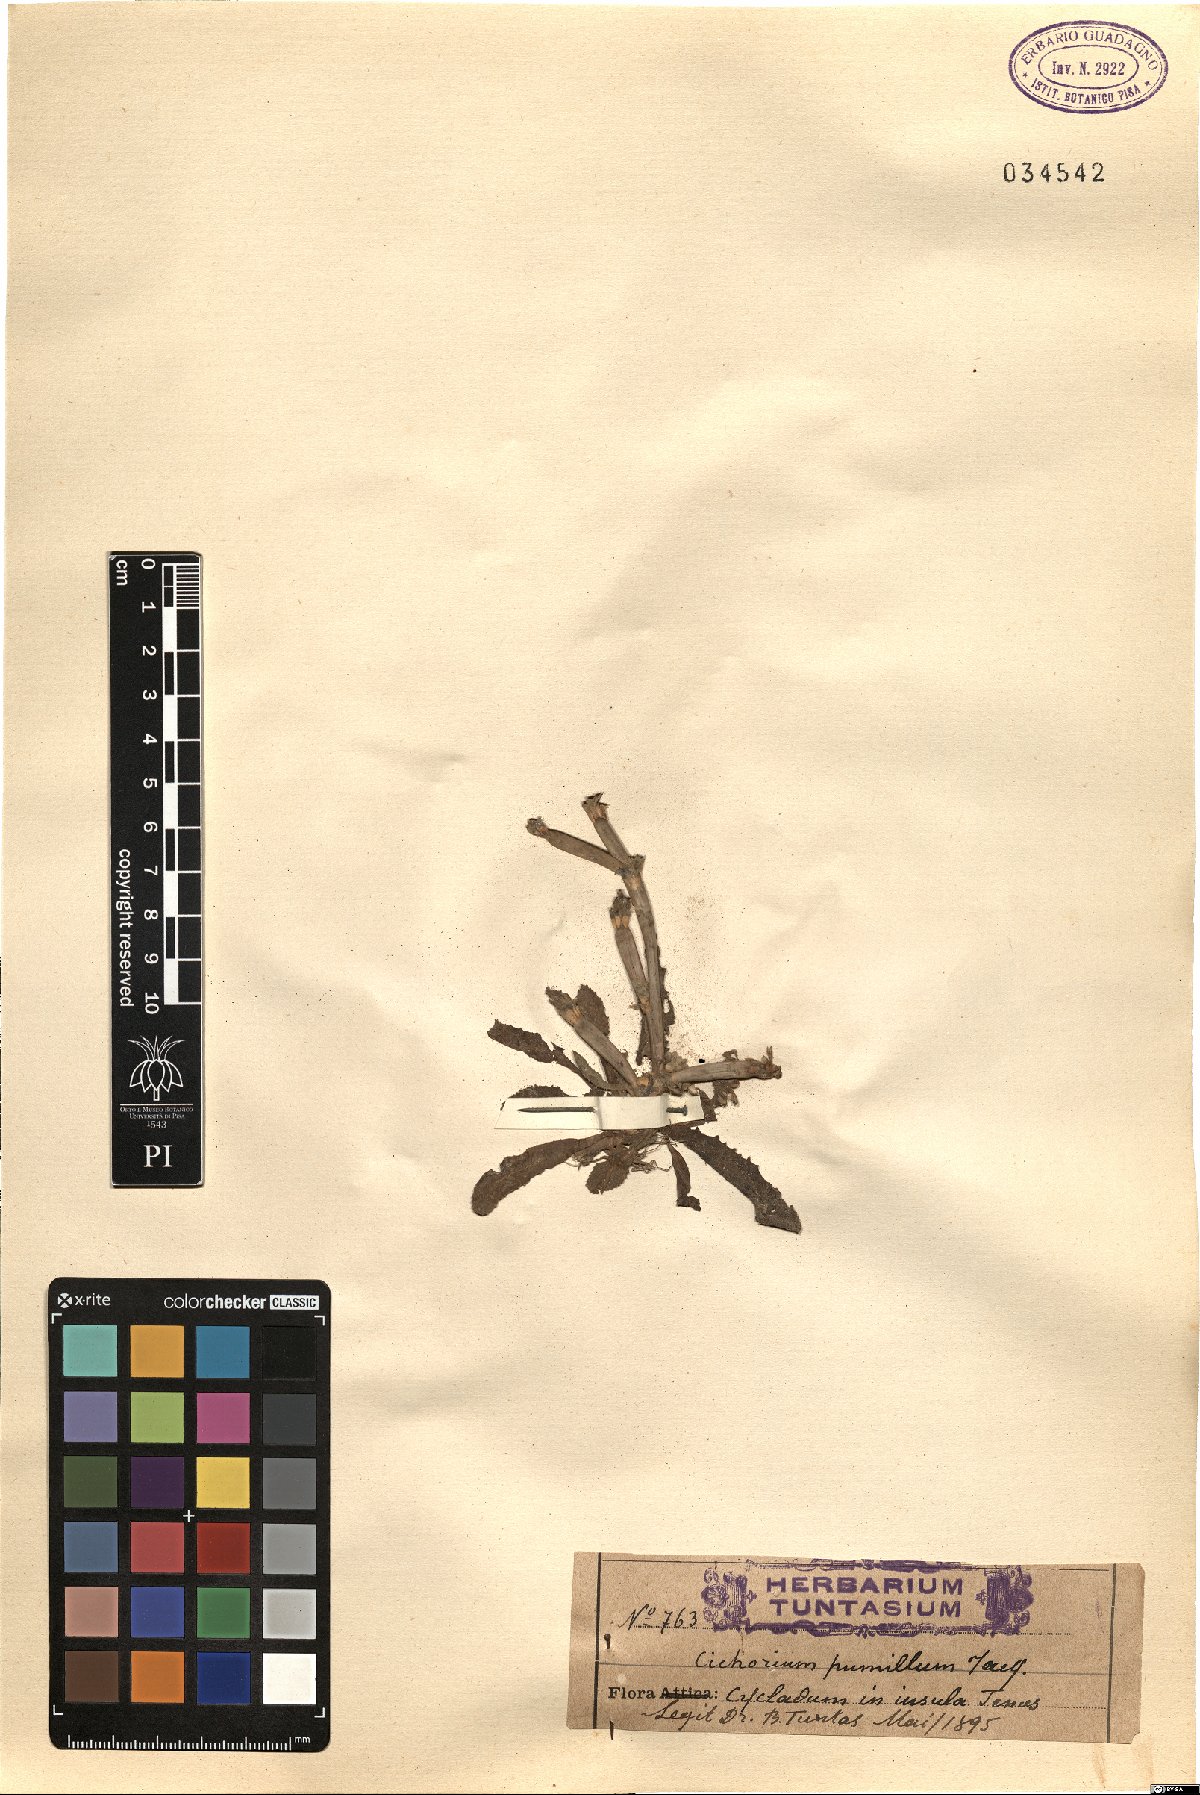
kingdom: Plantae
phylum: Tracheophyta
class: Magnoliopsida
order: Asterales
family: Asteraceae
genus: Cichorium
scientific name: Cichorium pumilum
